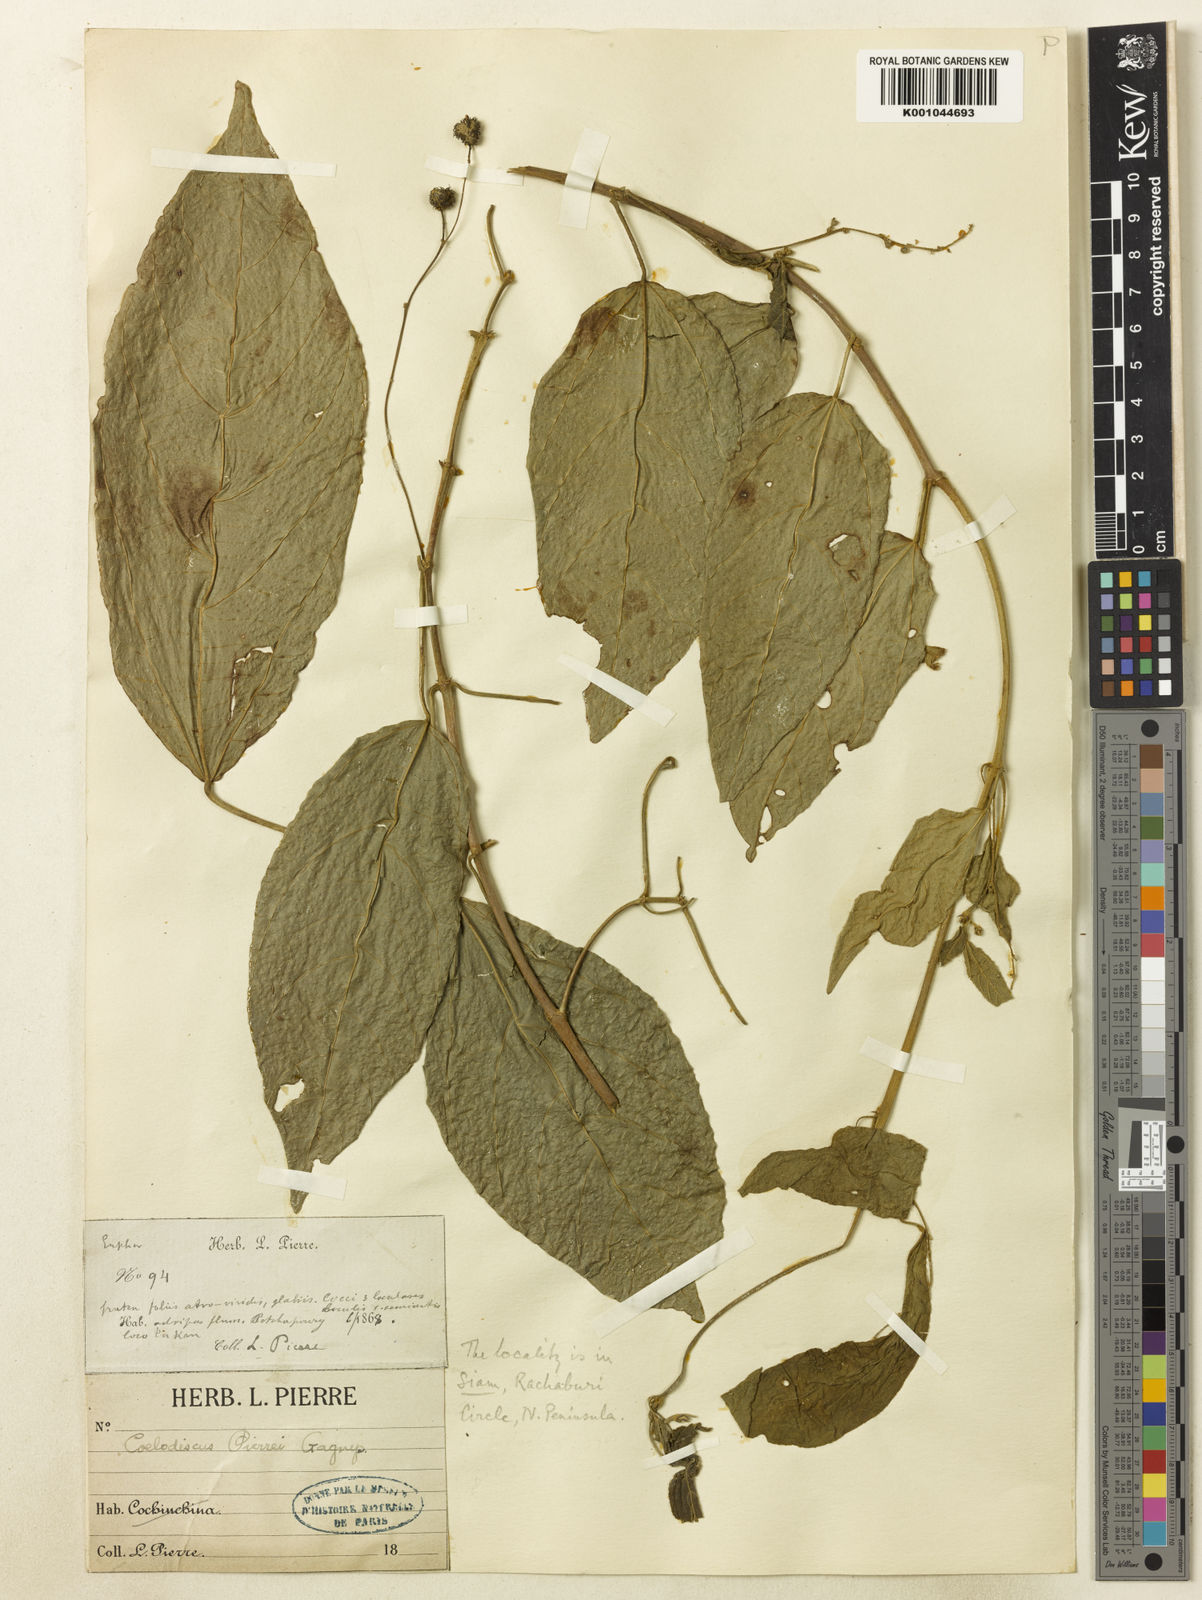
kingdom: Plantae
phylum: Tracheophyta
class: Magnoliopsida
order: Malpighiales
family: Euphorbiaceae
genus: Mallotus
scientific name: Mallotus pierrei
